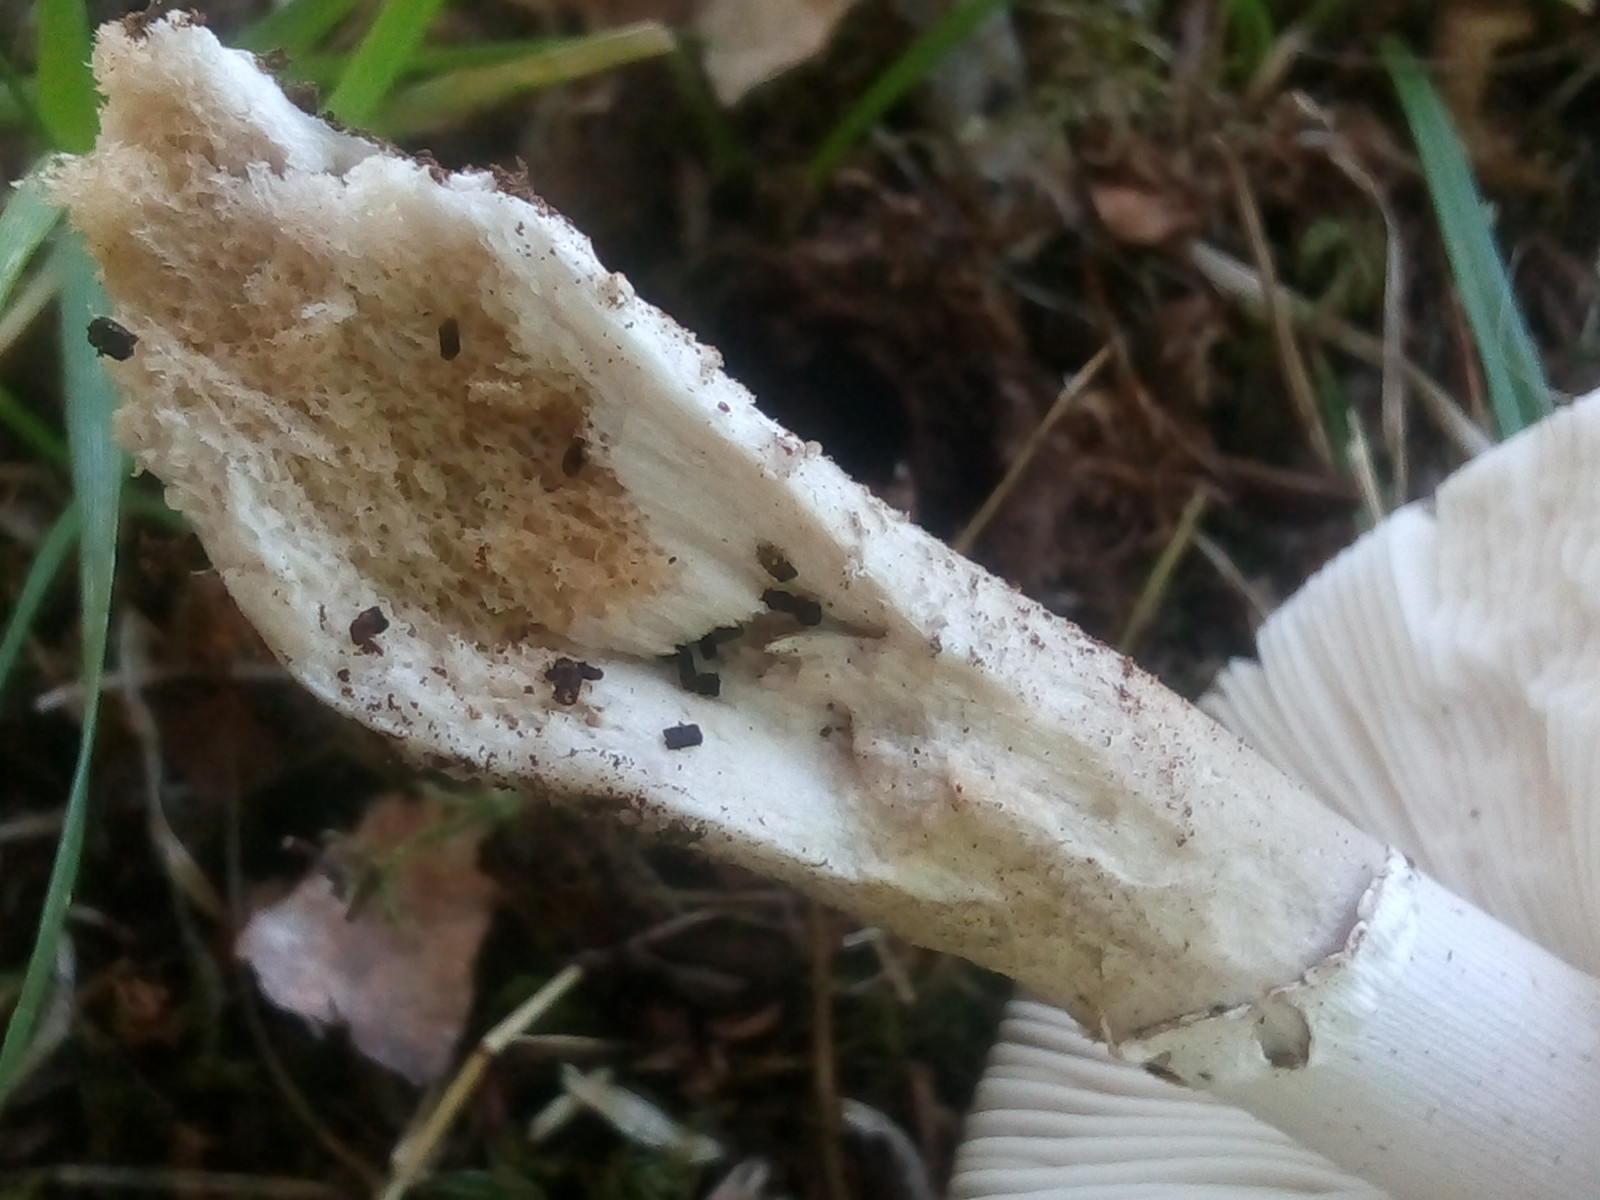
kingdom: Fungi
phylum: Basidiomycota
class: Agaricomycetes
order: Agaricales
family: Amanitaceae
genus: Amanita
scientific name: Amanita
